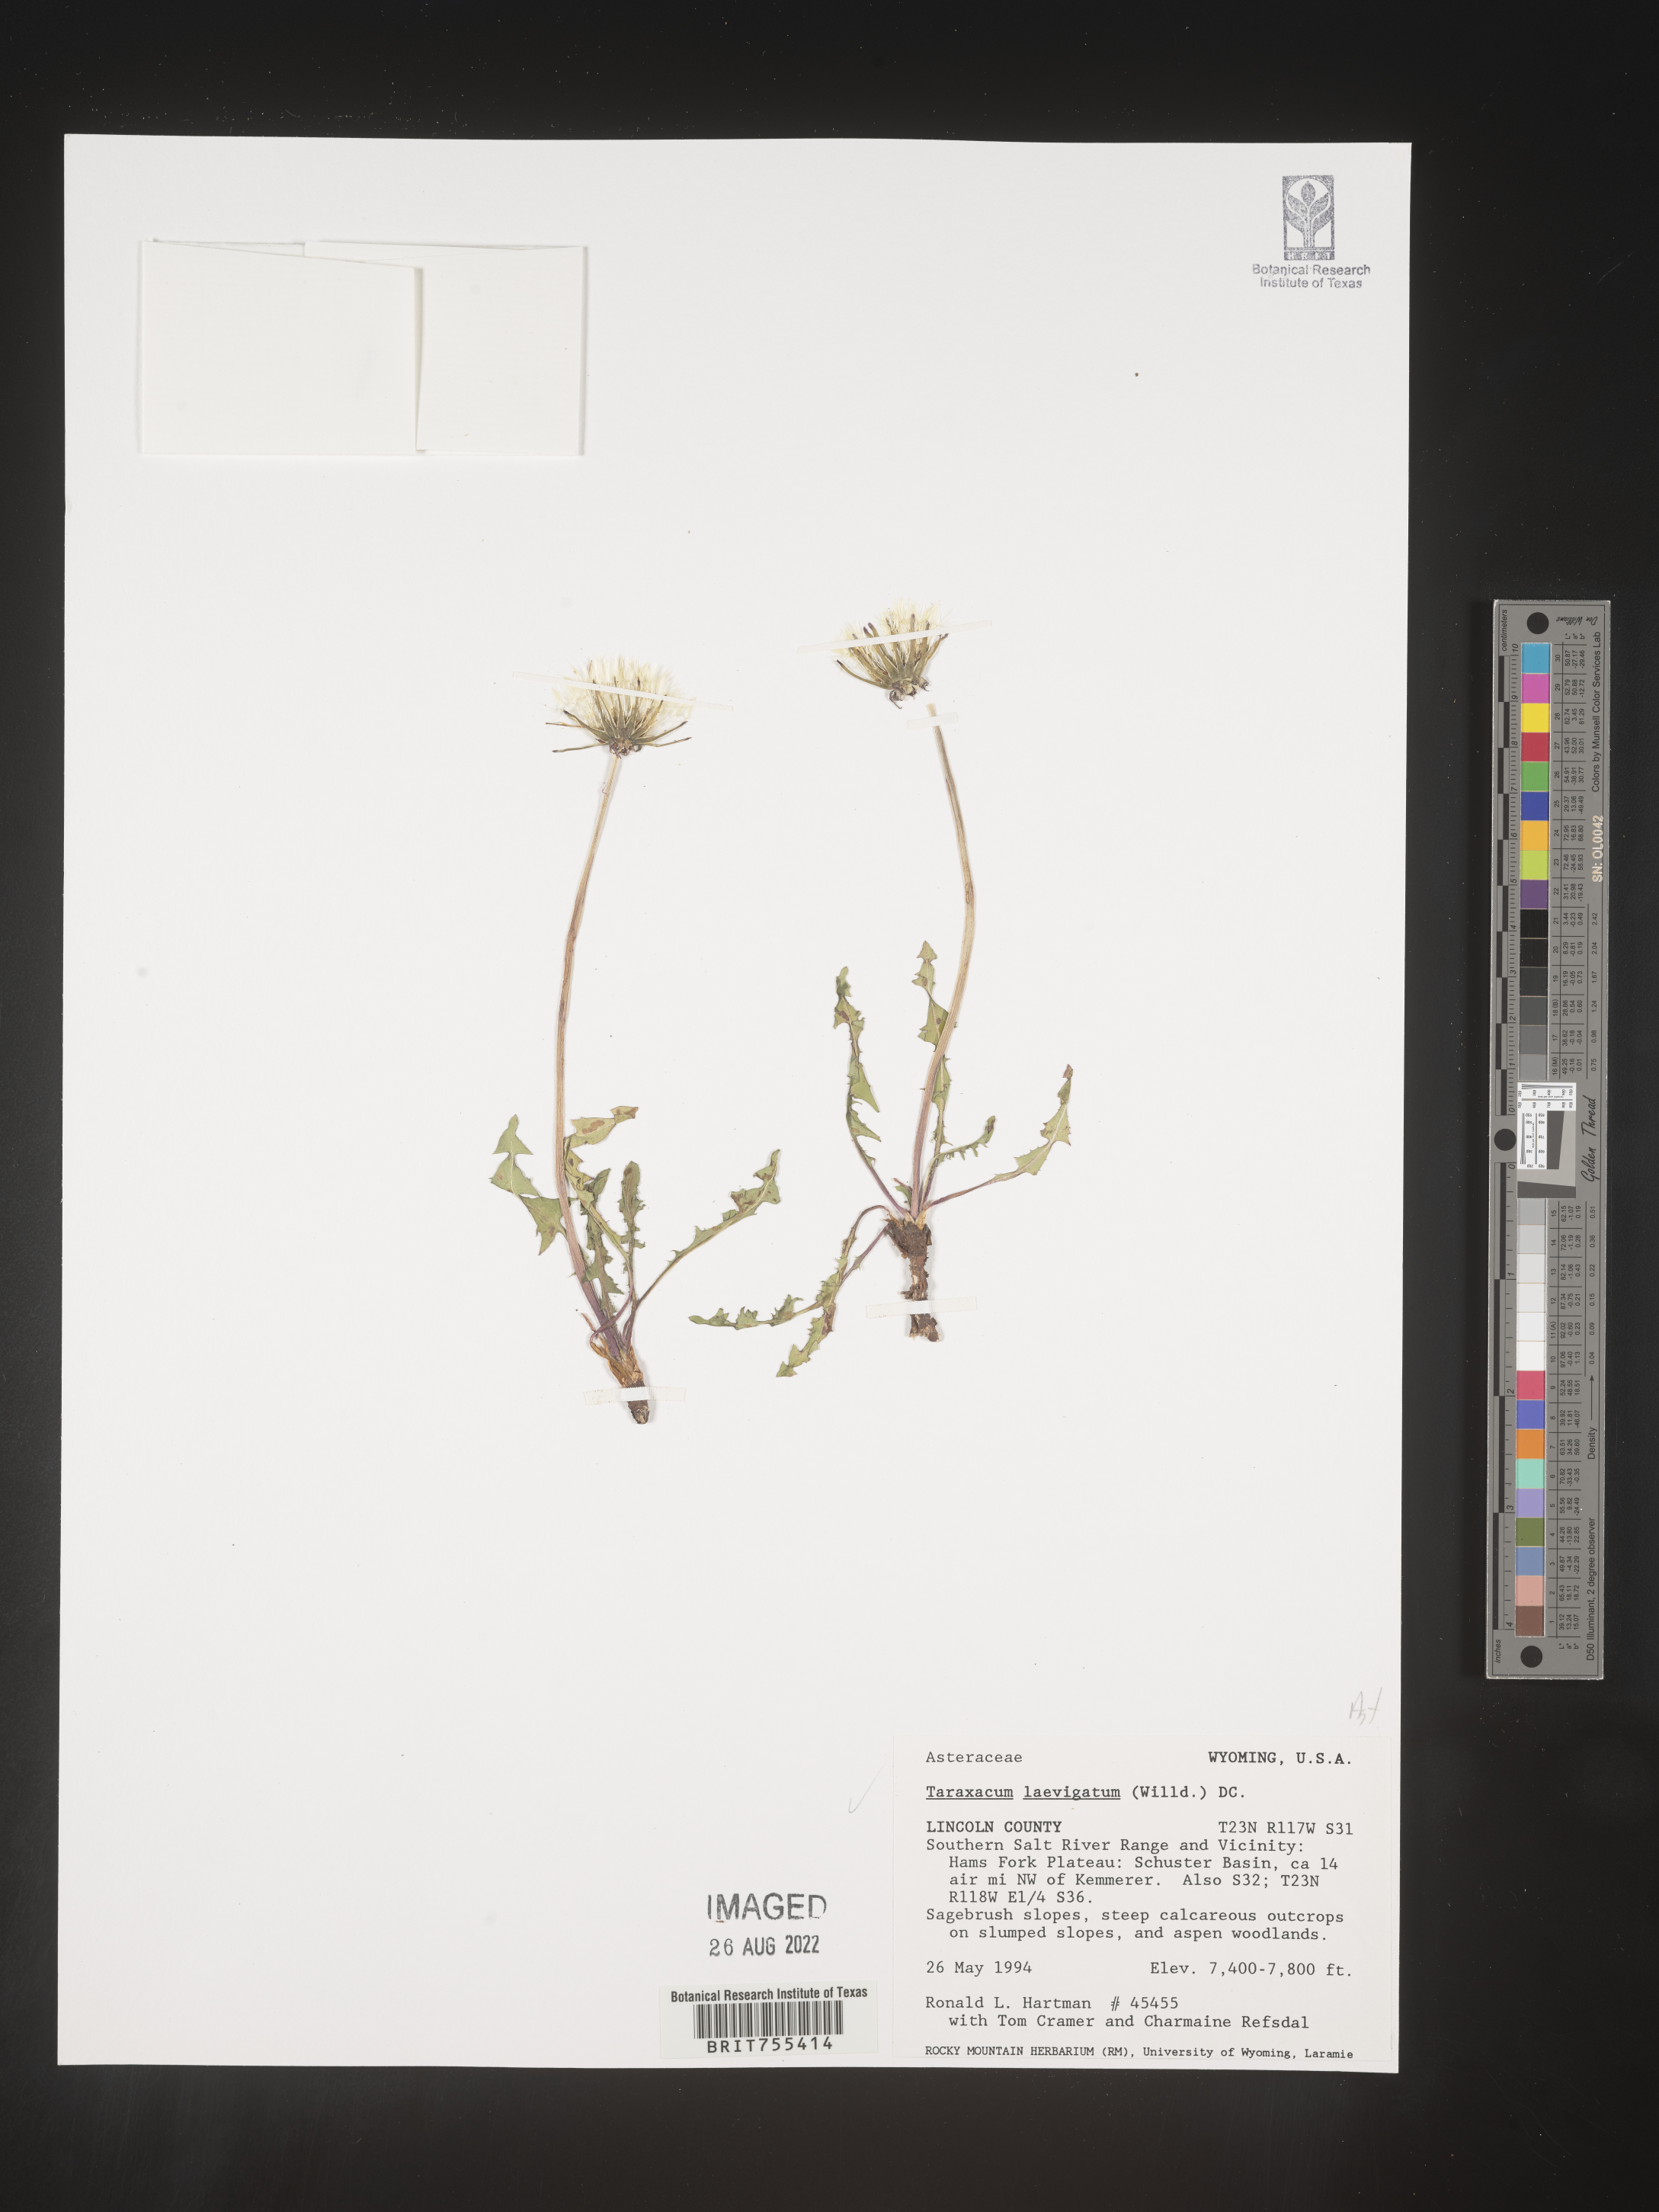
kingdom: Plantae
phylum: Tracheophyta
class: Magnoliopsida
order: Asterales
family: Asteraceae
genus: Taraxacum
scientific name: Taraxacum erythrospermum
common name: Rock dandelion
